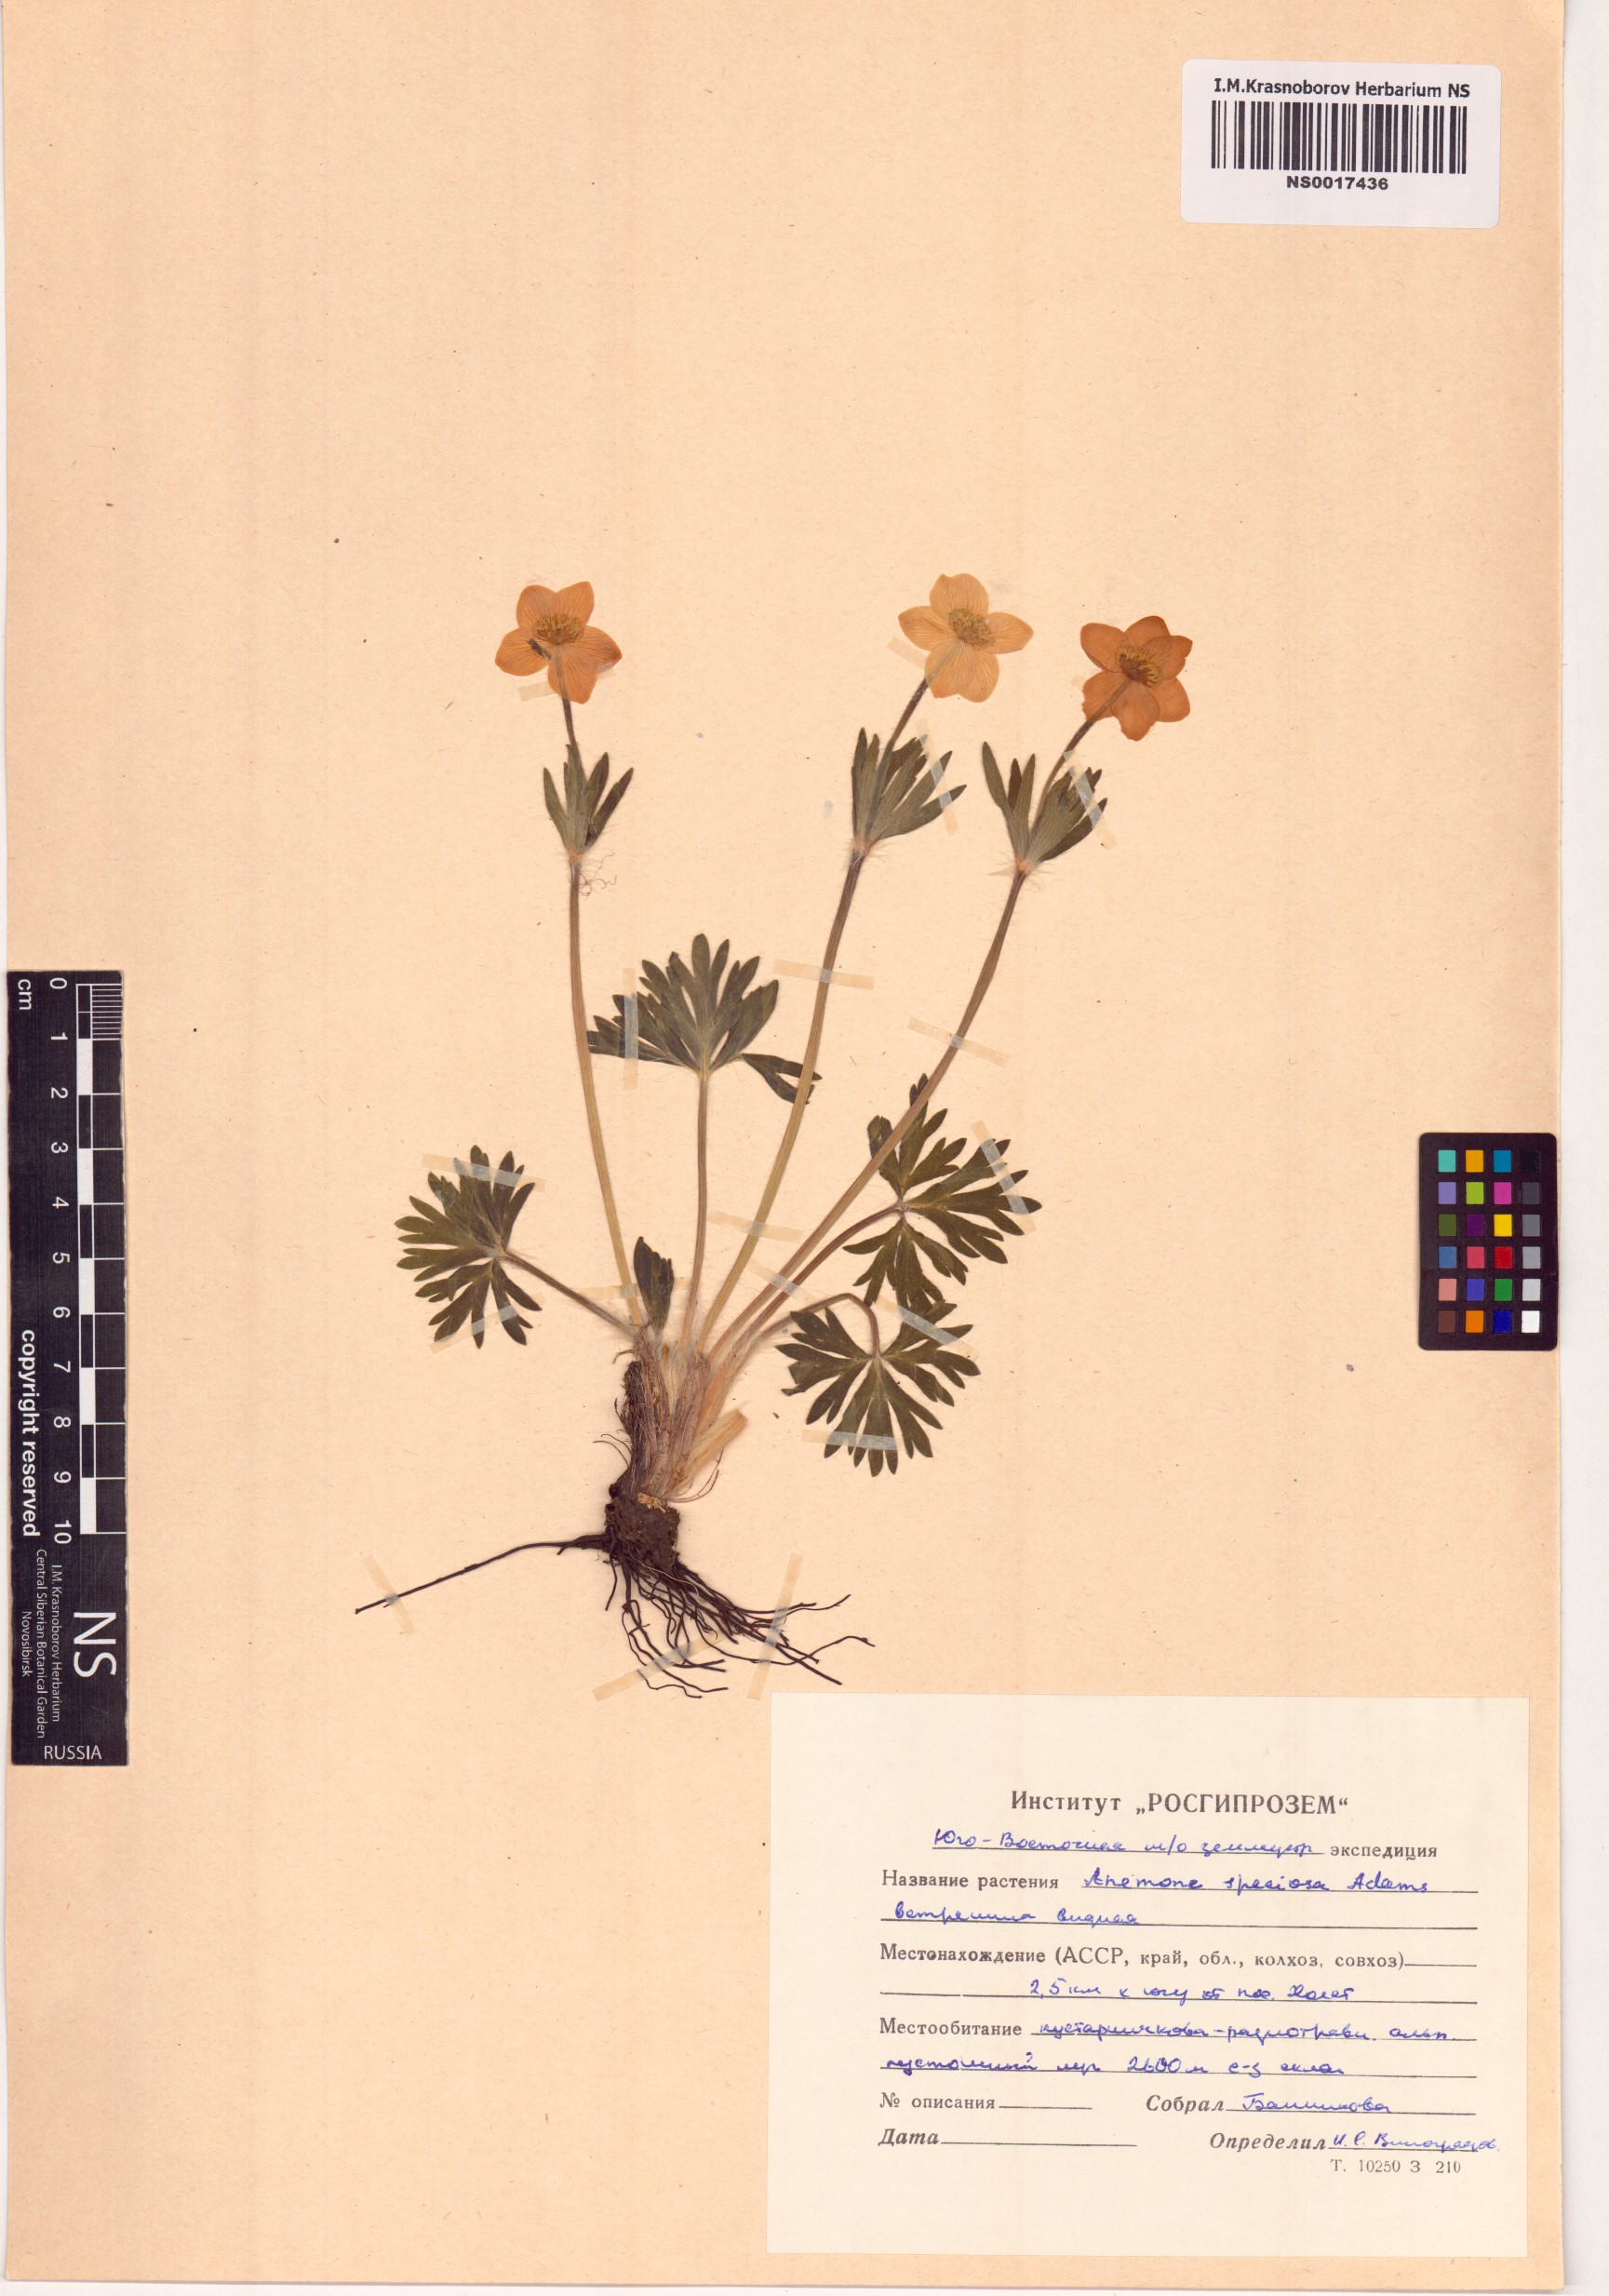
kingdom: Plantae
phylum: Tracheophyta
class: Magnoliopsida
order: Ranunculales
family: Ranunculaceae
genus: Anemonastrum
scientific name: Anemonastrum narcissiflorum
